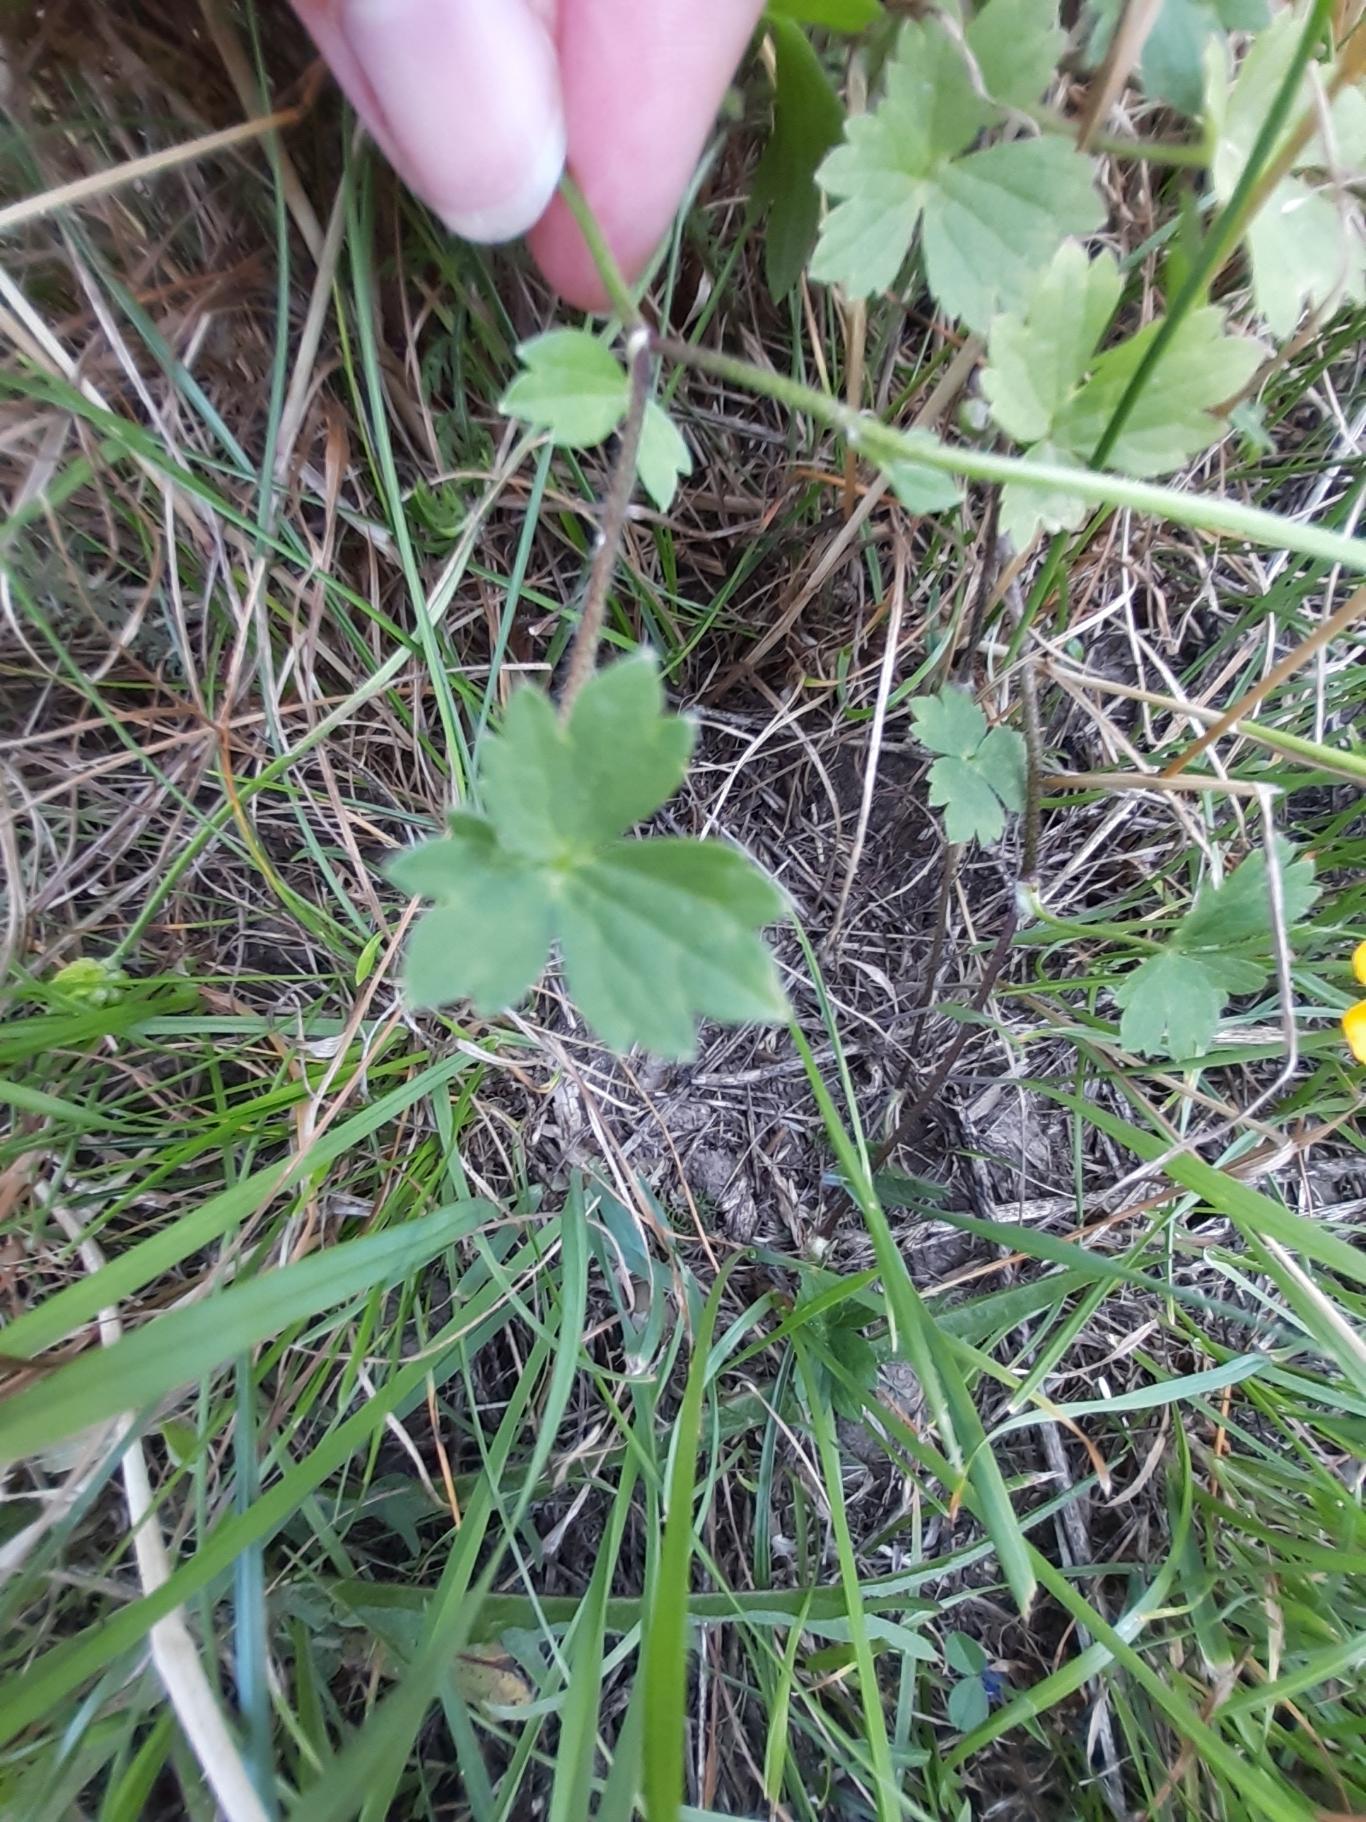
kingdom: Plantae
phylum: Tracheophyta
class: Magnoliopsida
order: Ranunculales
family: Ranunculaceae
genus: Ranunculus
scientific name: Ranunculus acris
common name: Bidende ranunkel
